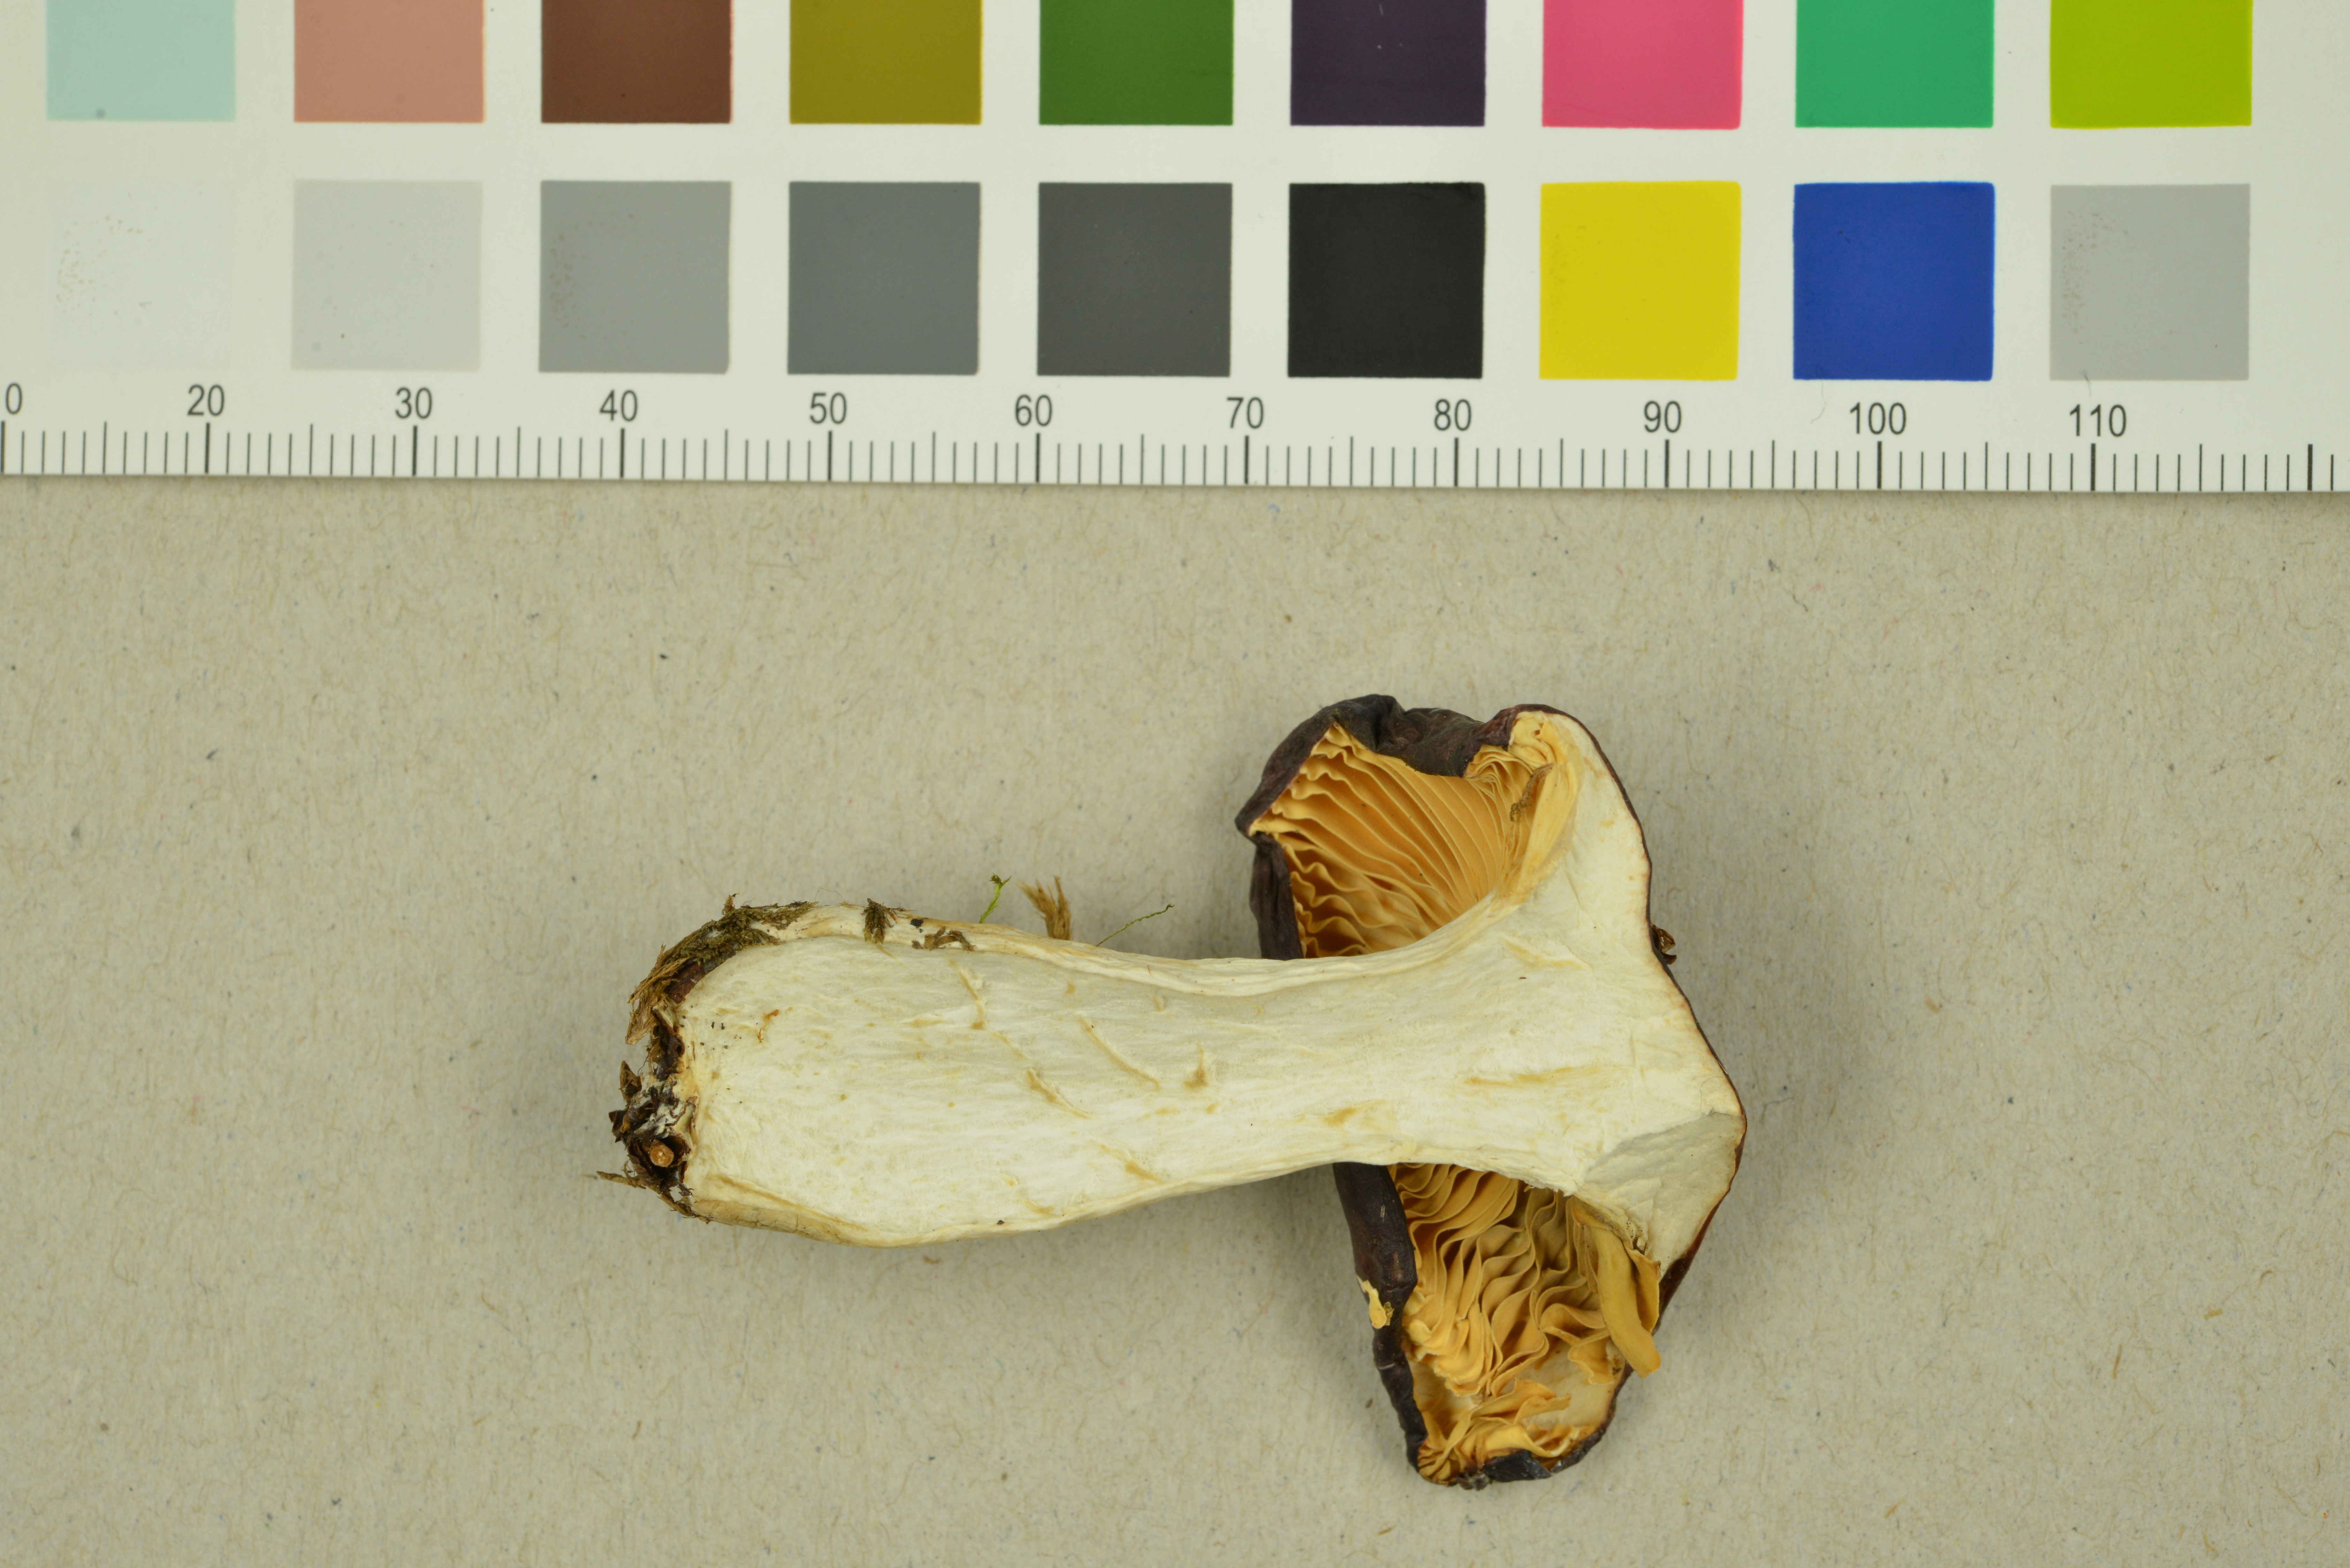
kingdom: Fungi
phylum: Basidiomycota
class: Agaricomycetes
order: Russulales
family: Russulaceae
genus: Russula
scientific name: Russula heterochroa
